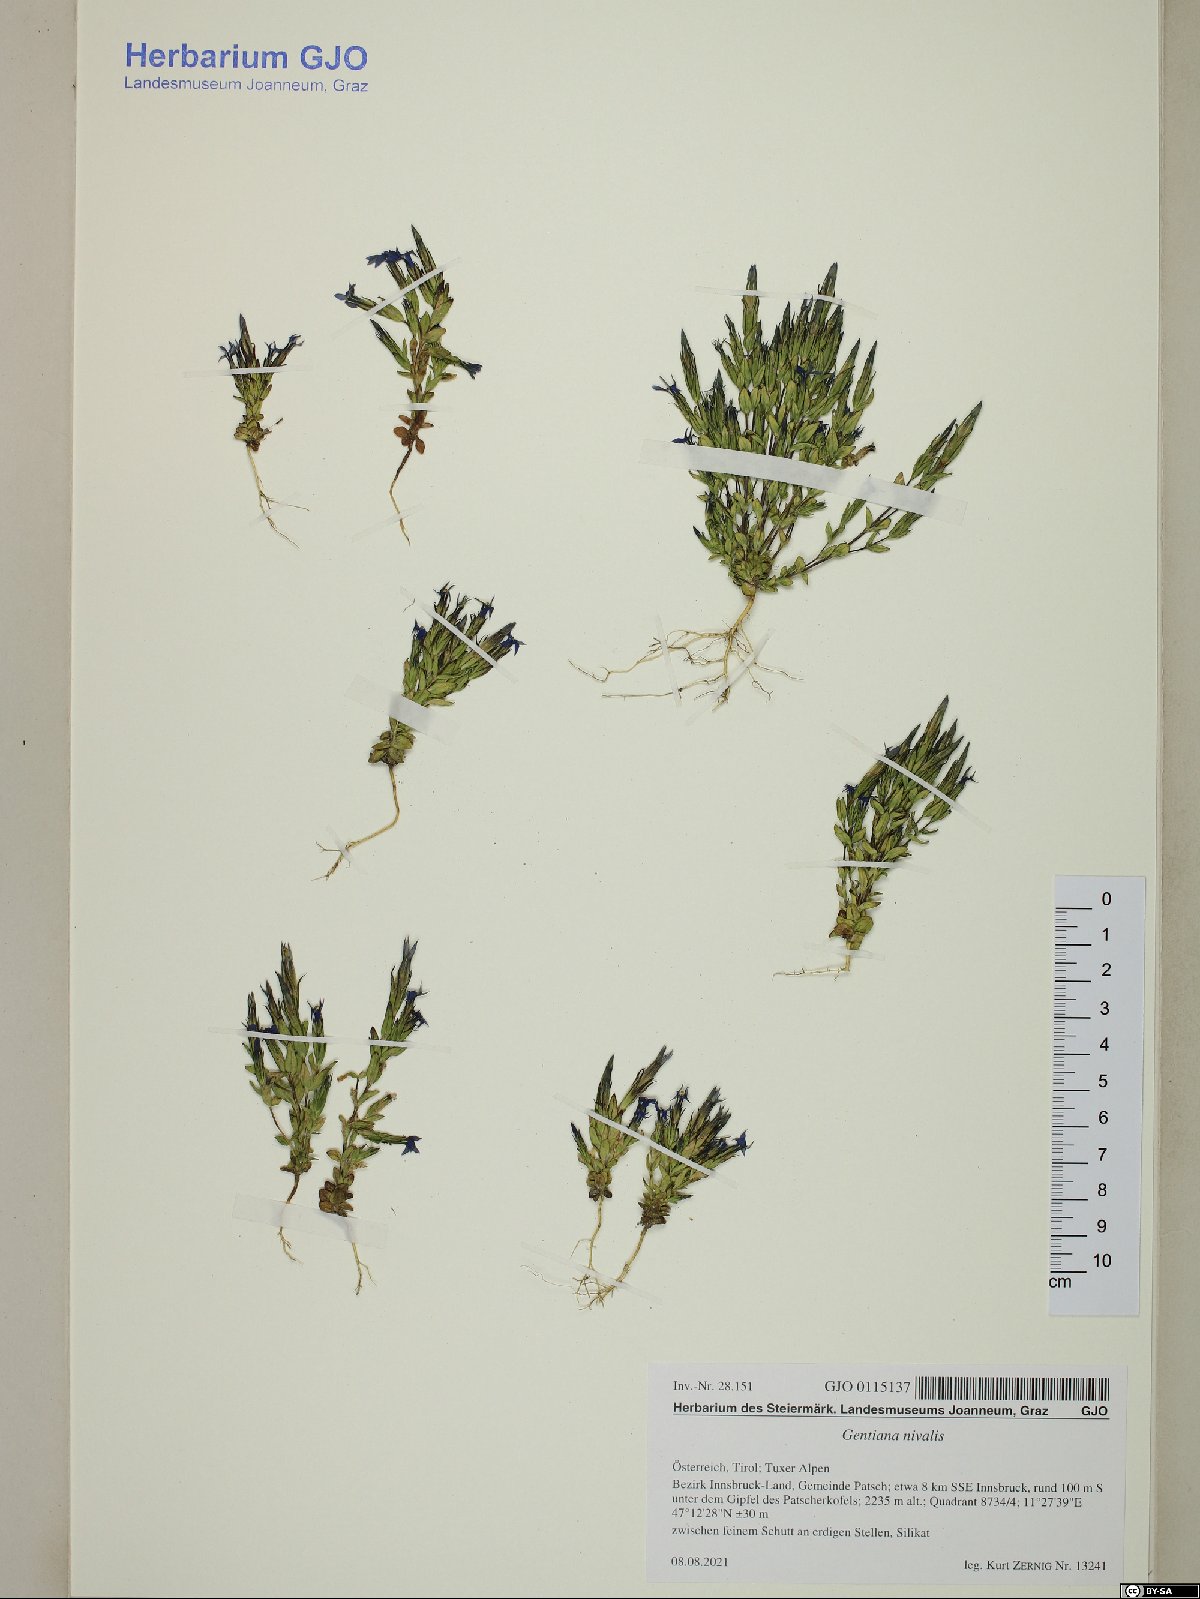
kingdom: Plantae
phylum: Tracheophyta
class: Magnoliopsida
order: Gentianales
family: Gentianaceae
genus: Gentiana
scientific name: Gentiana nivalis
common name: Alpine gentian
